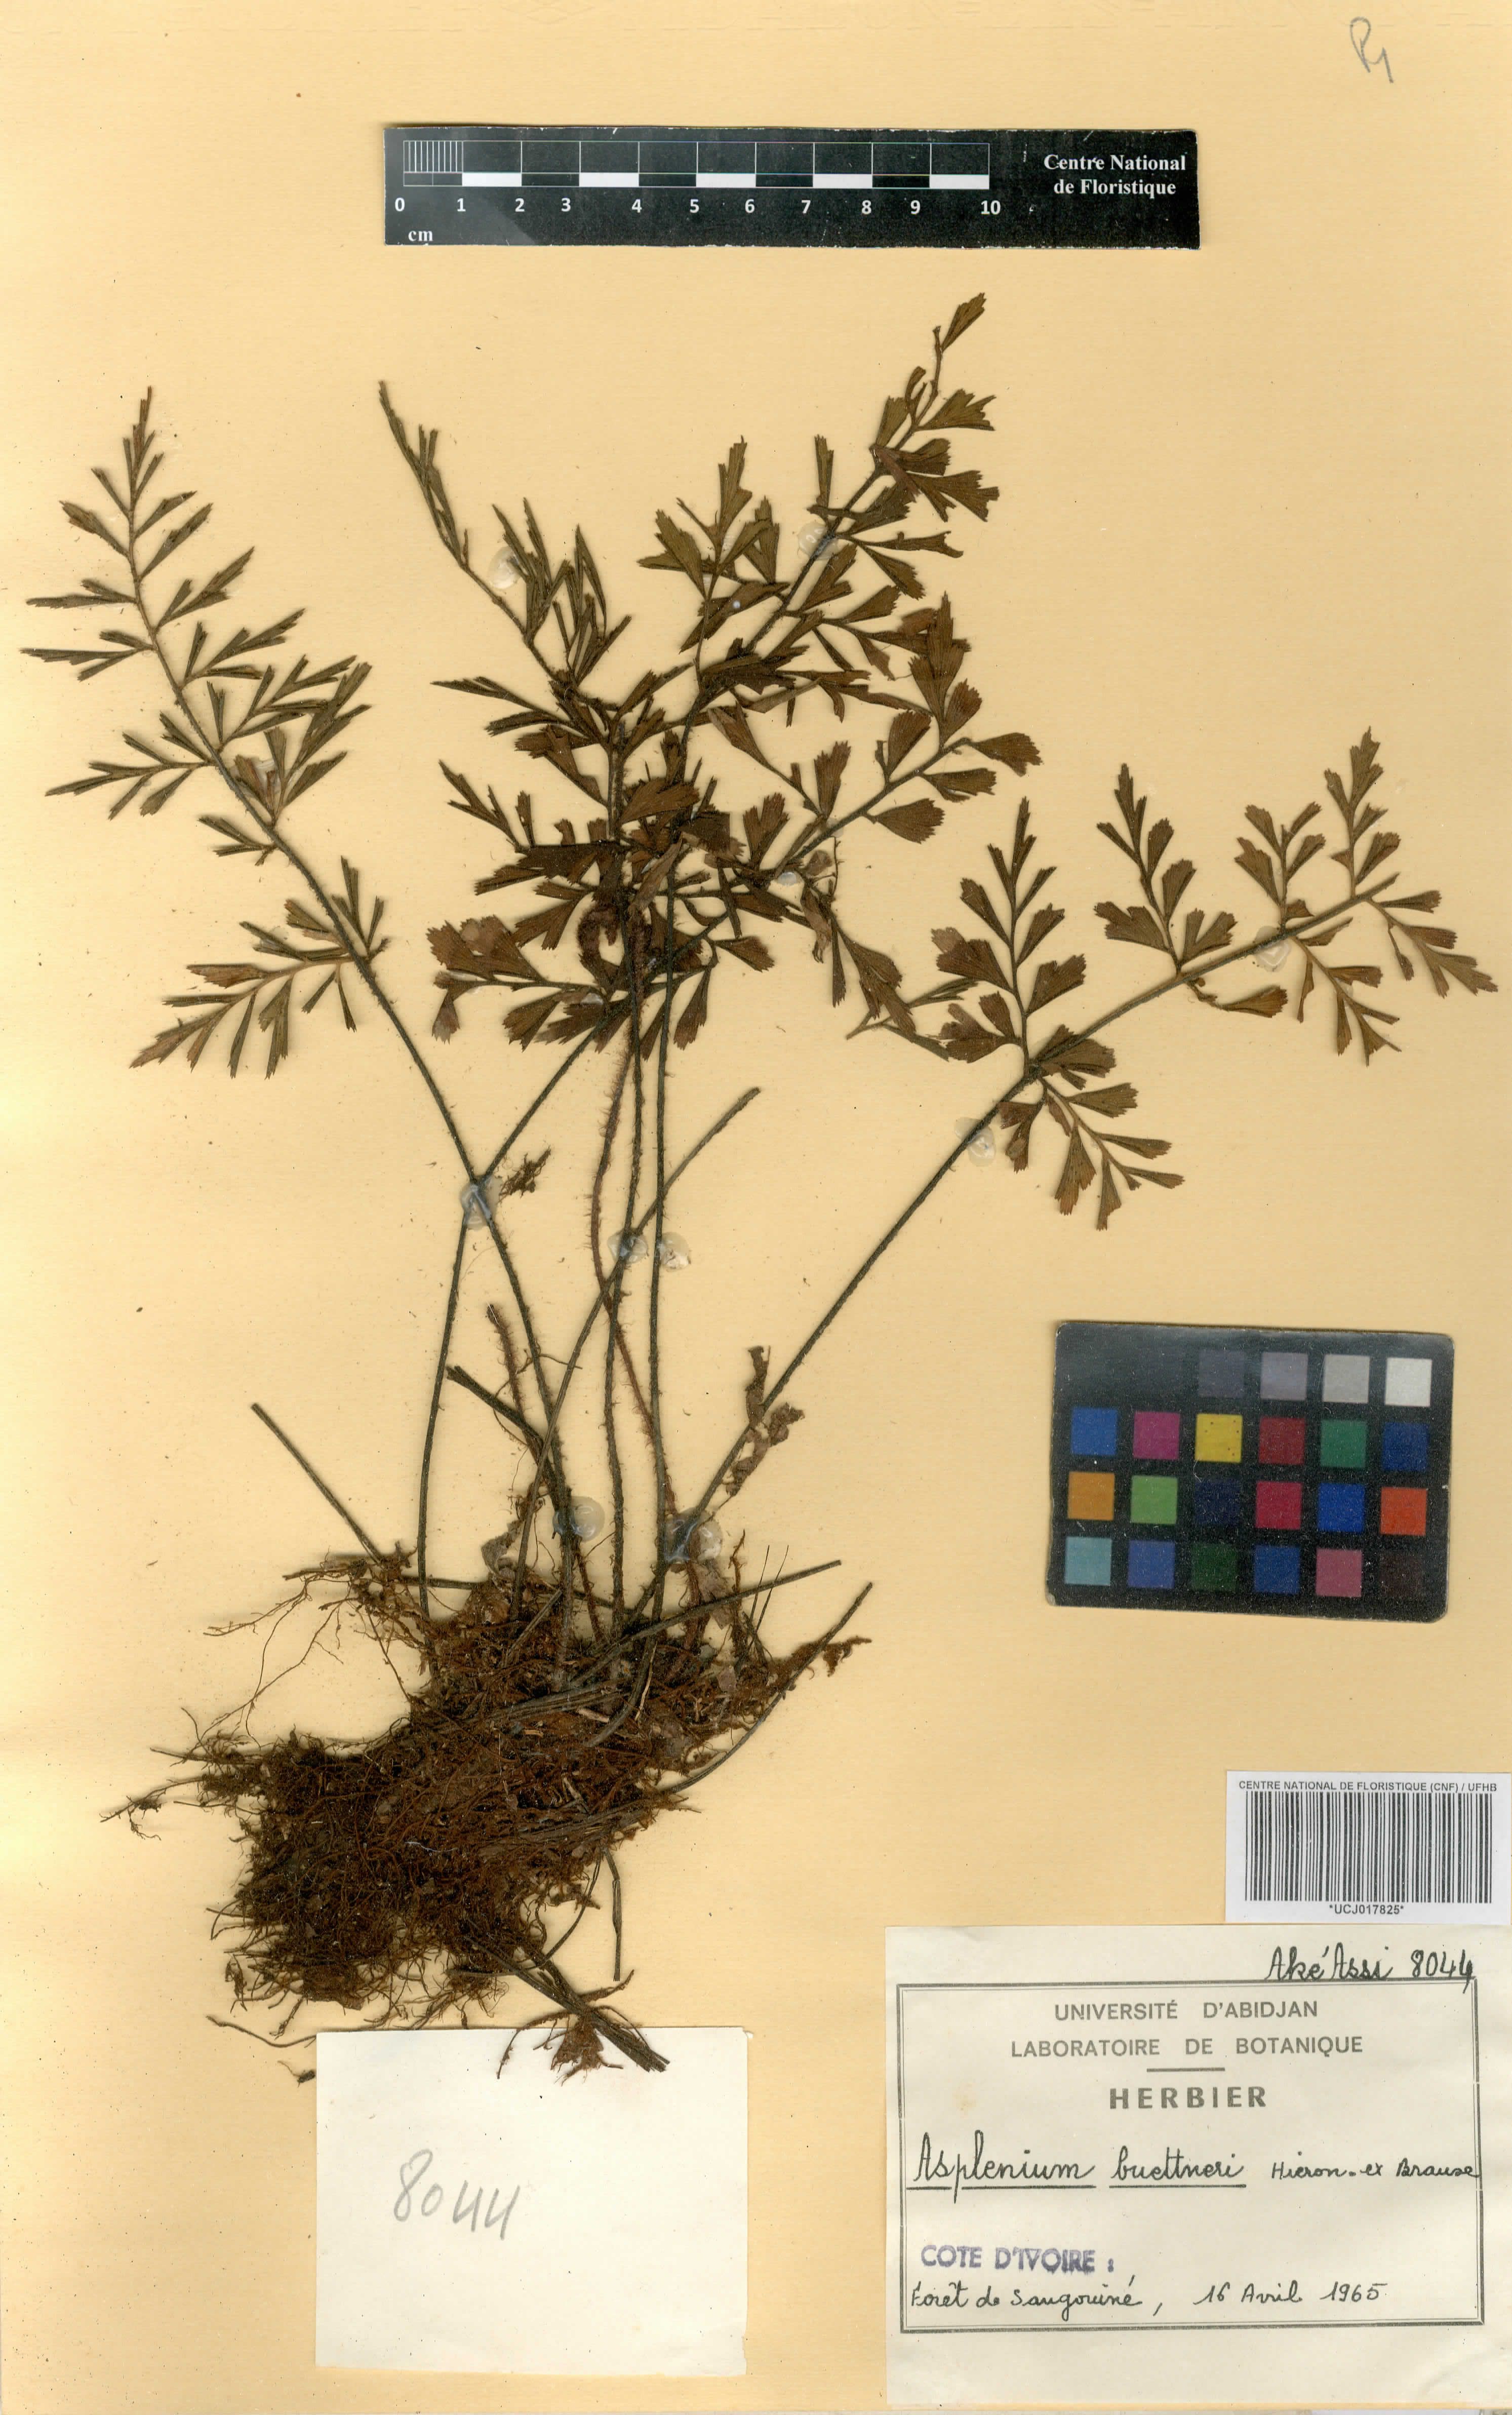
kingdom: Plantae
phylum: Tracheophyta
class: Polypodiopsida
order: Polypodiales
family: Aspleniaceae
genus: Asplenium
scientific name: Asplenium buettneri
